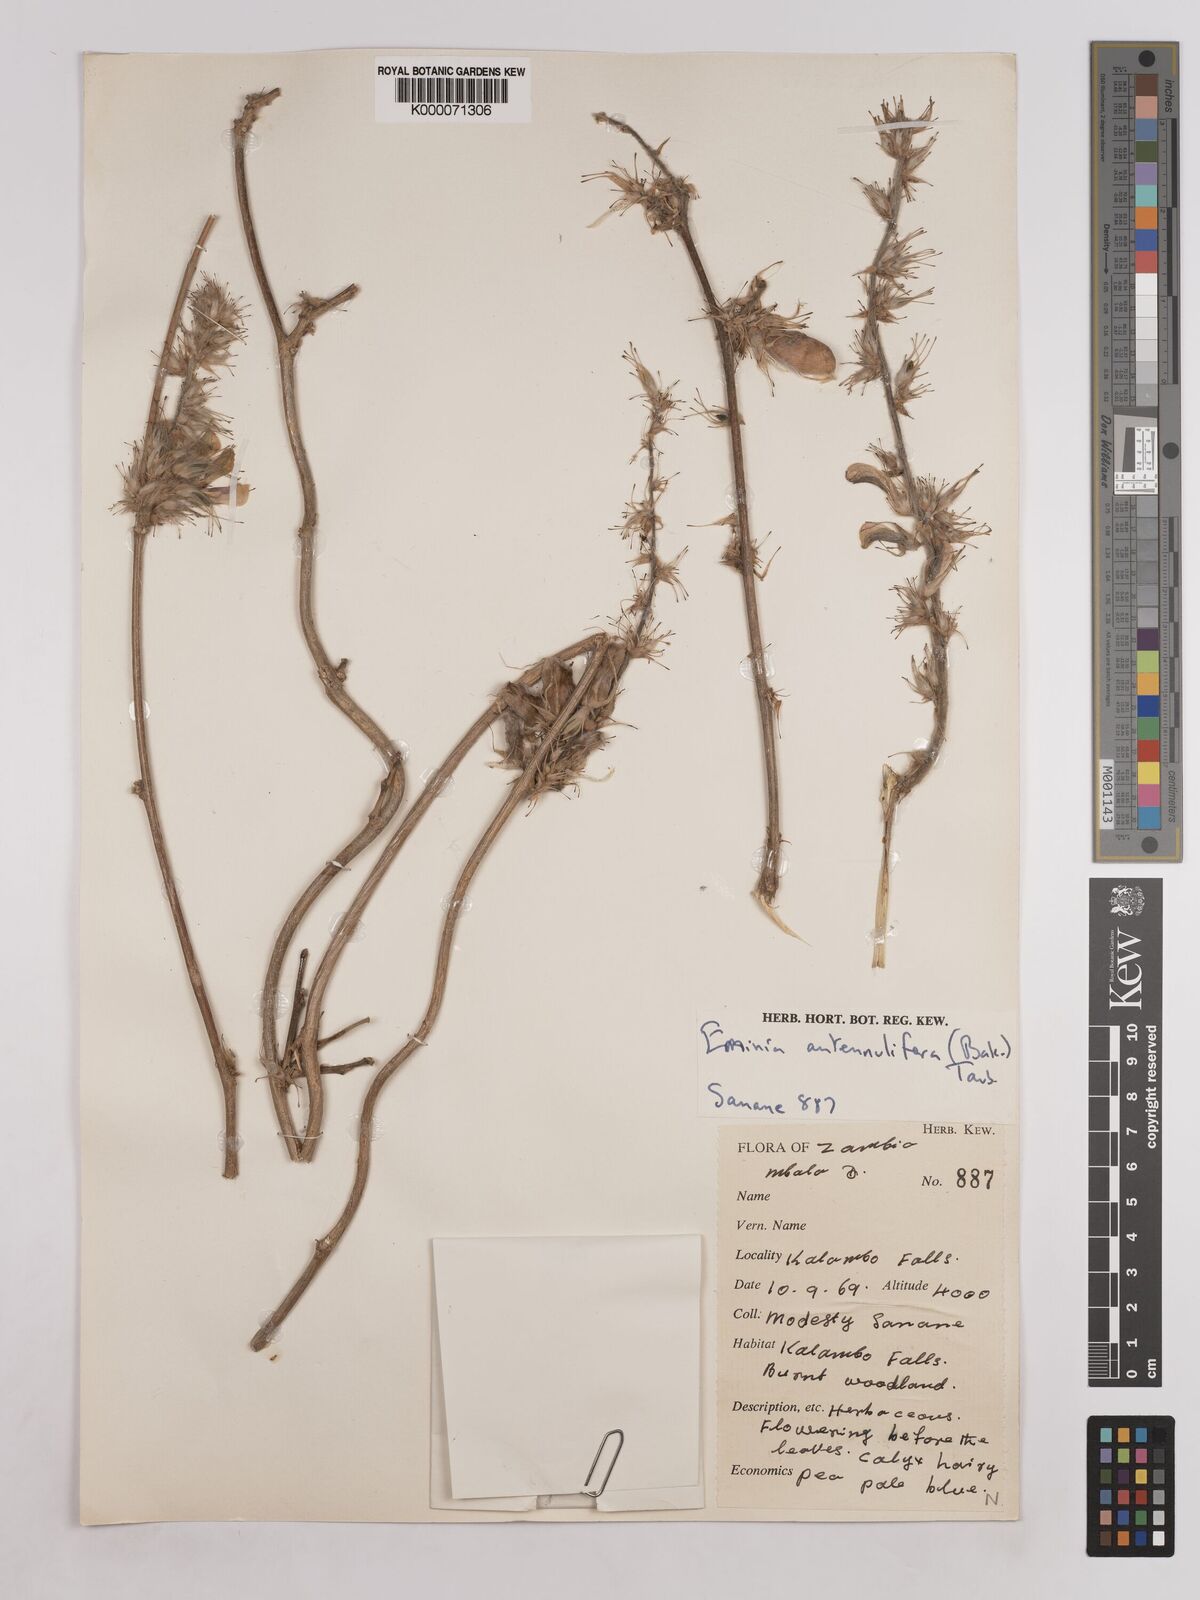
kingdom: Plantae
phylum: Tracheophyta
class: Magnoliopsida
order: Fabales
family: Fabaceae
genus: Eminia
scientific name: Eminia antennulifera
